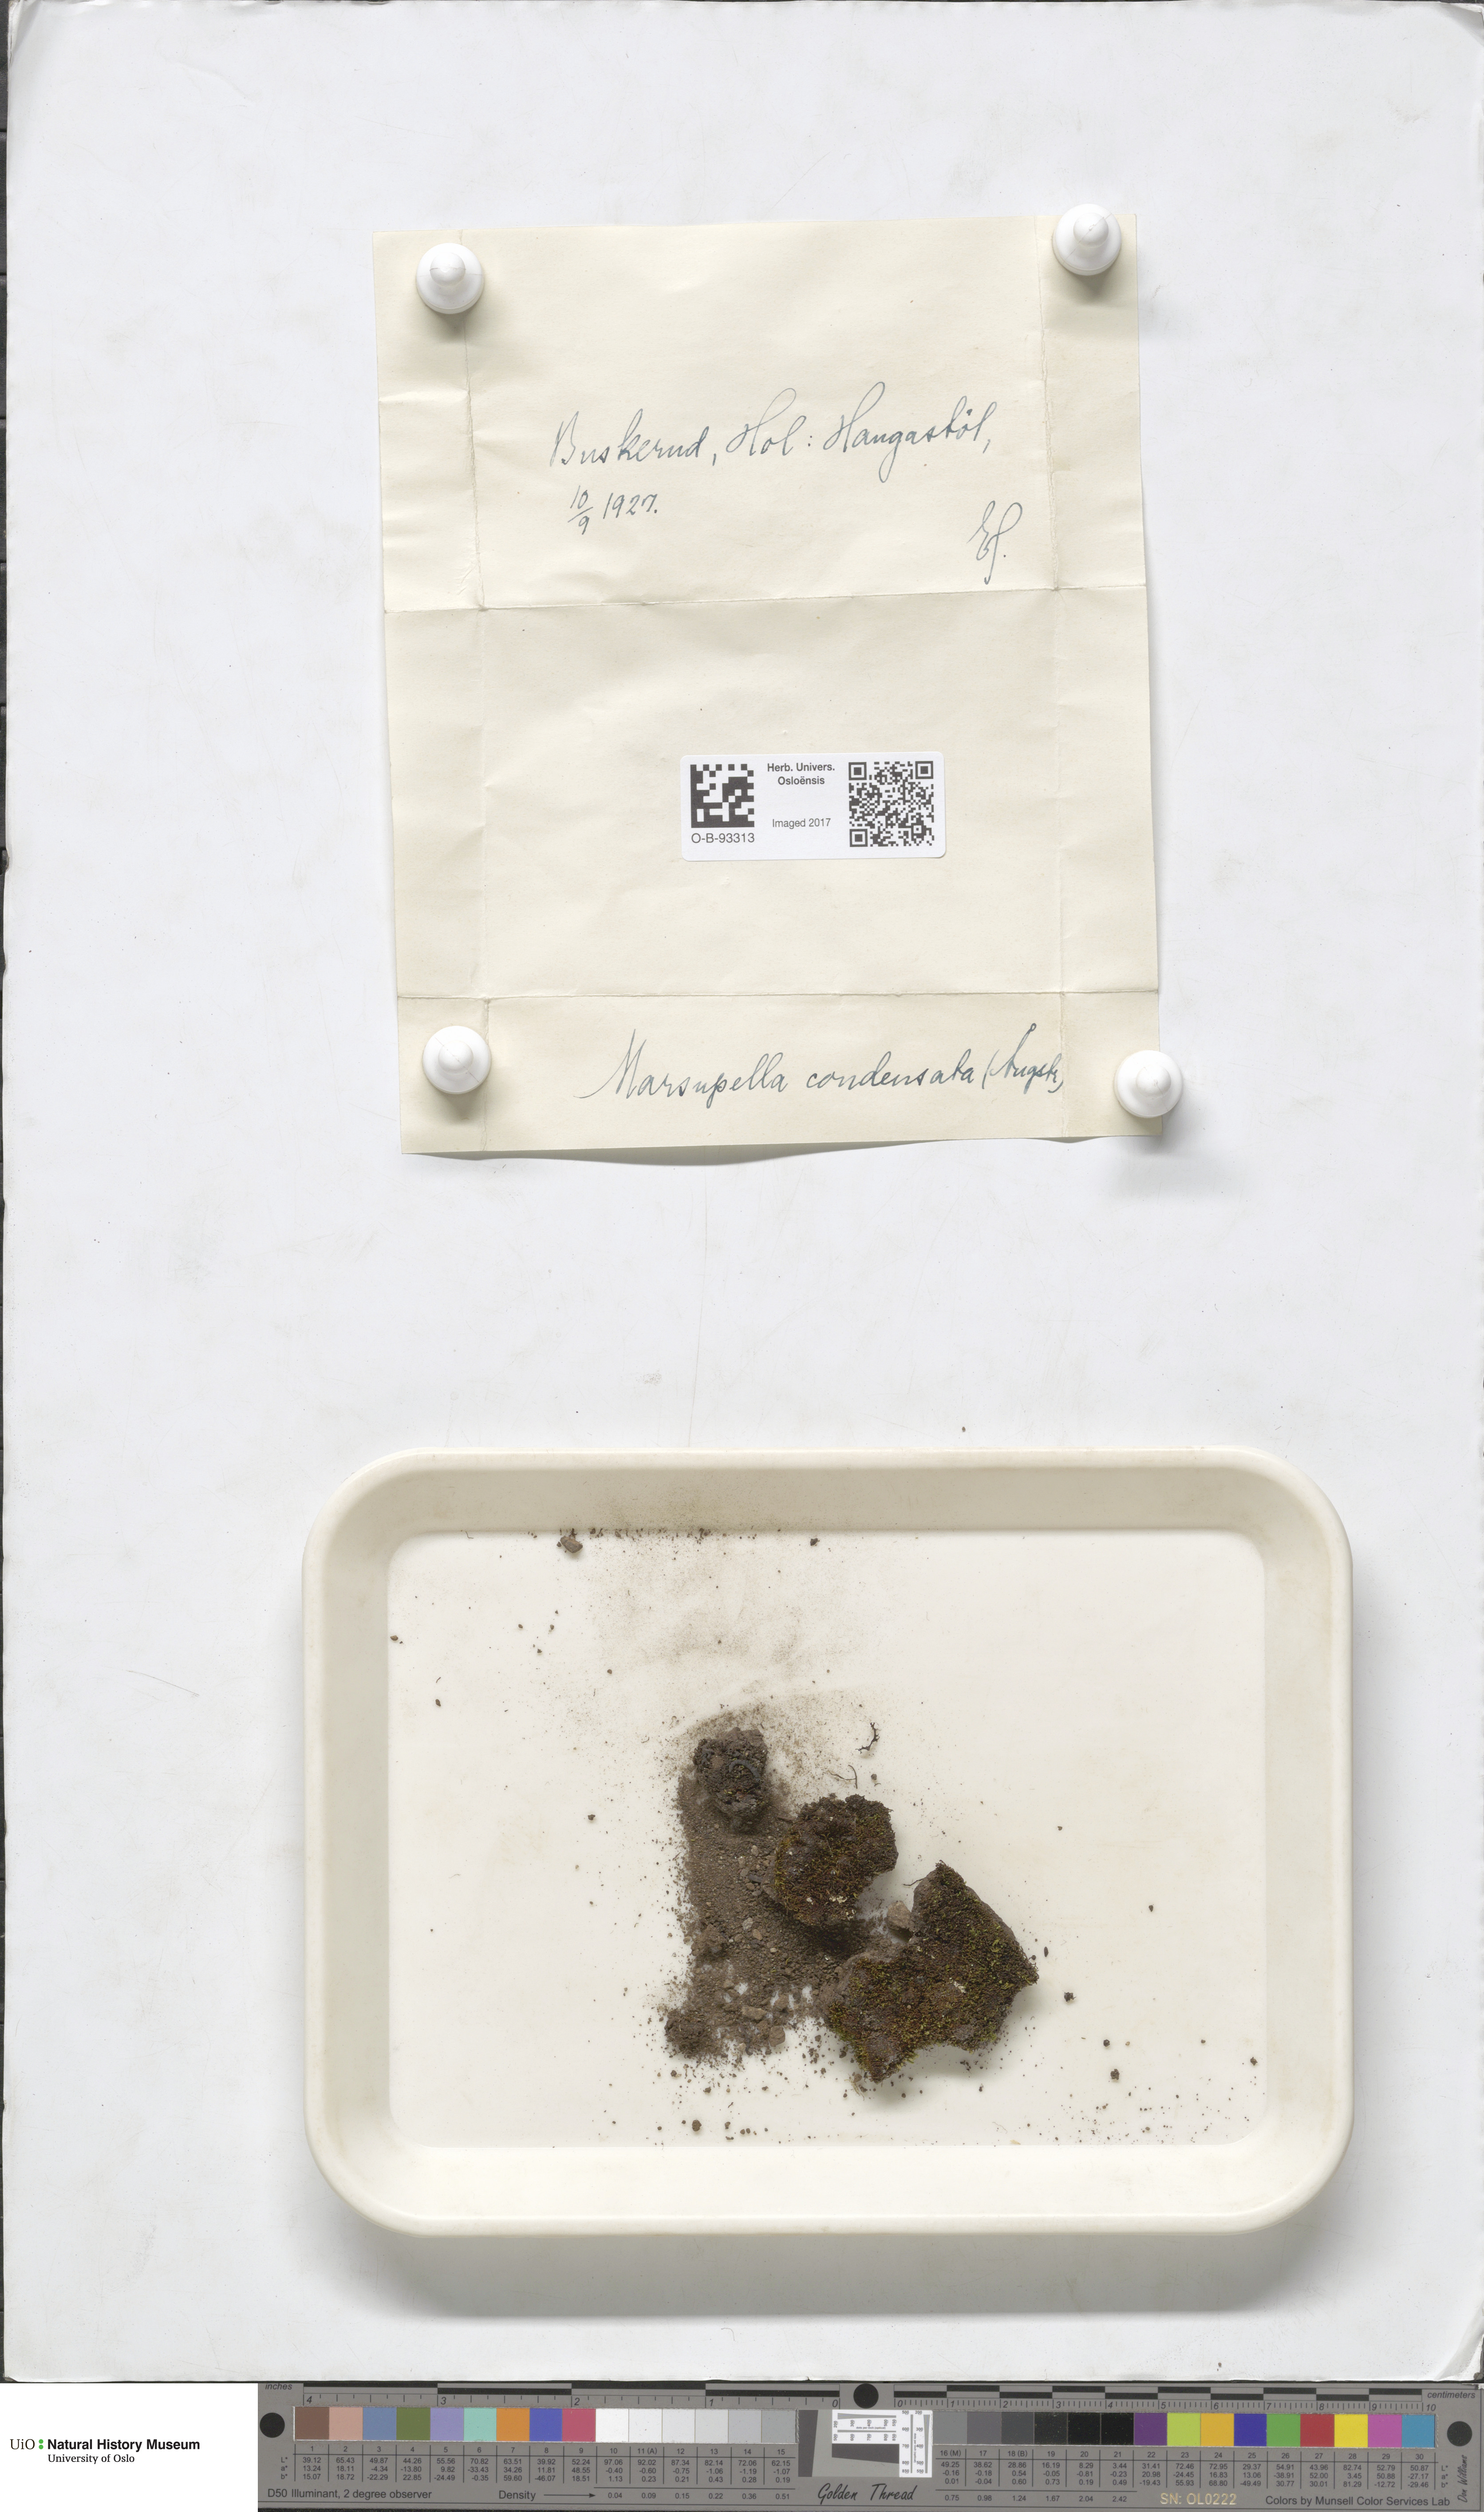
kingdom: Plantae
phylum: Marchantiophyta
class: Jungermanniopsida
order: Jungermanniales
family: Gymnomitriaceae
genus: Gymnomitrion
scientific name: Gymnomitrion brevissimum
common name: Snow rustwort
